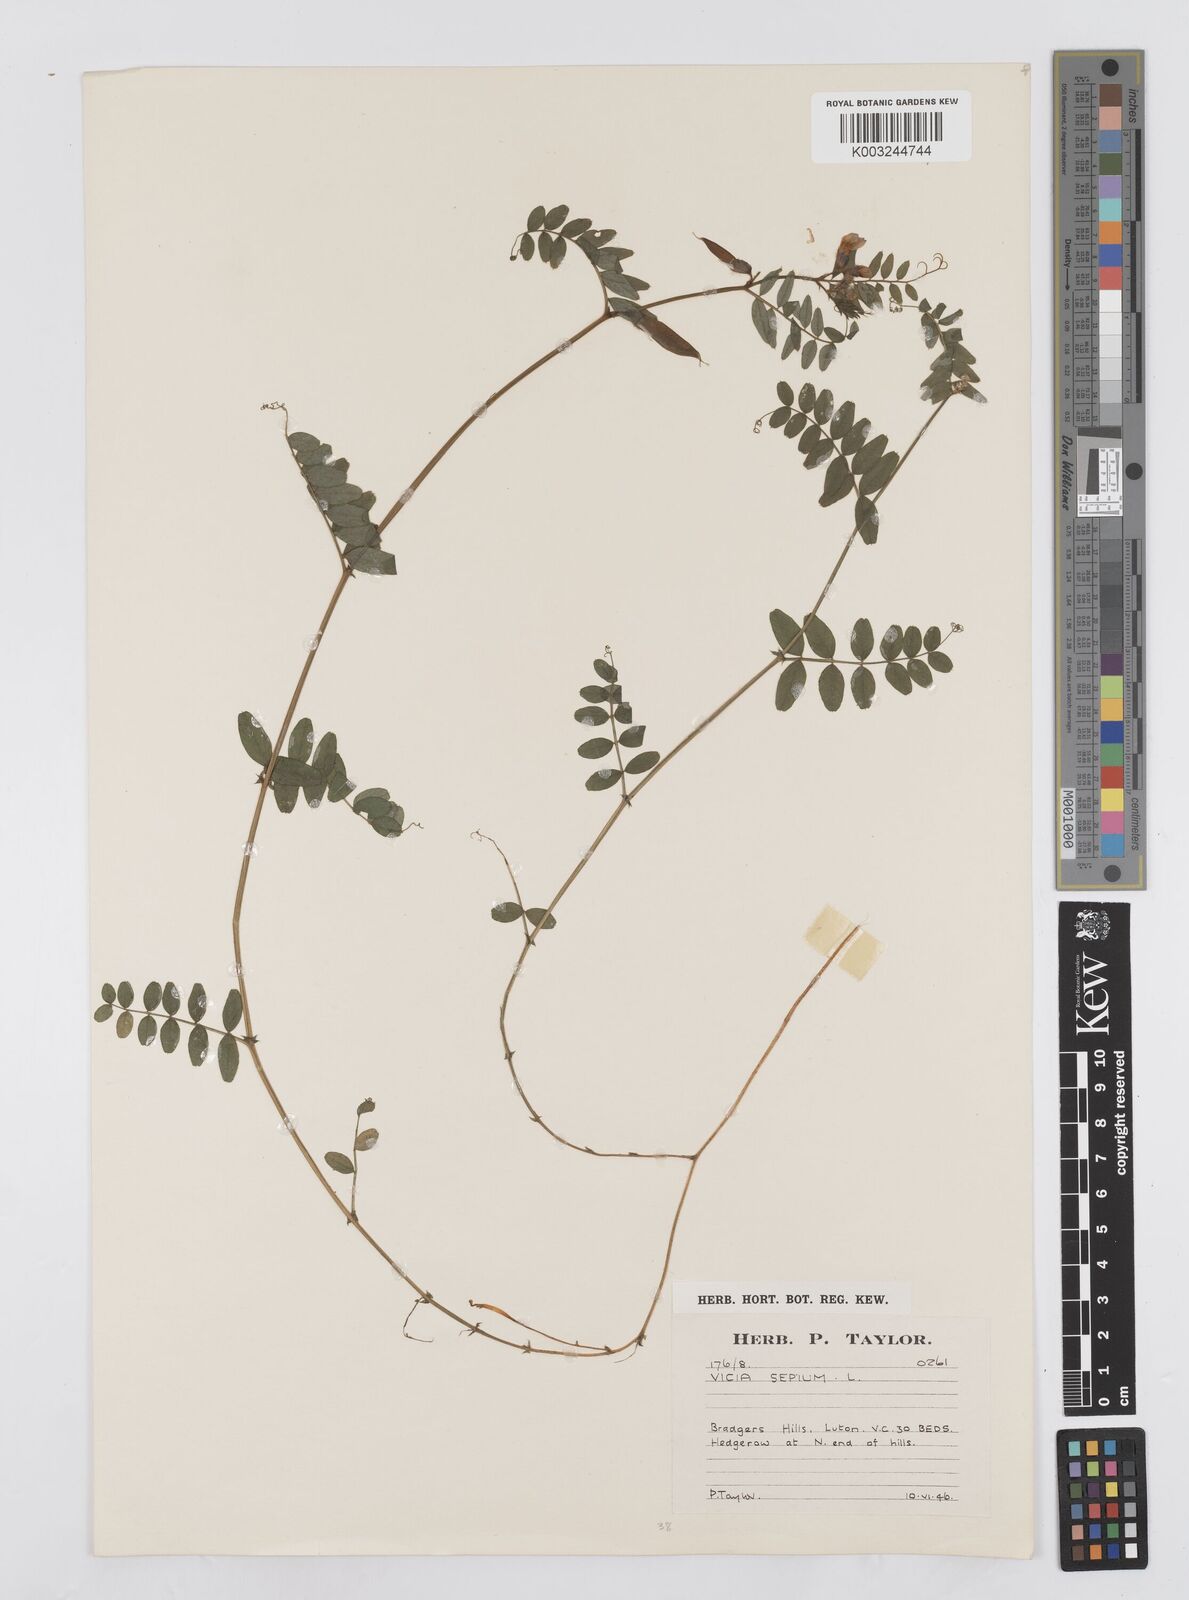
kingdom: Plantae
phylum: Tracheophyta
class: Magnoliopsida
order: Fabales
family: Fabaceae
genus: Vicia
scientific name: Vicia sepium
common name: Bush vetch
